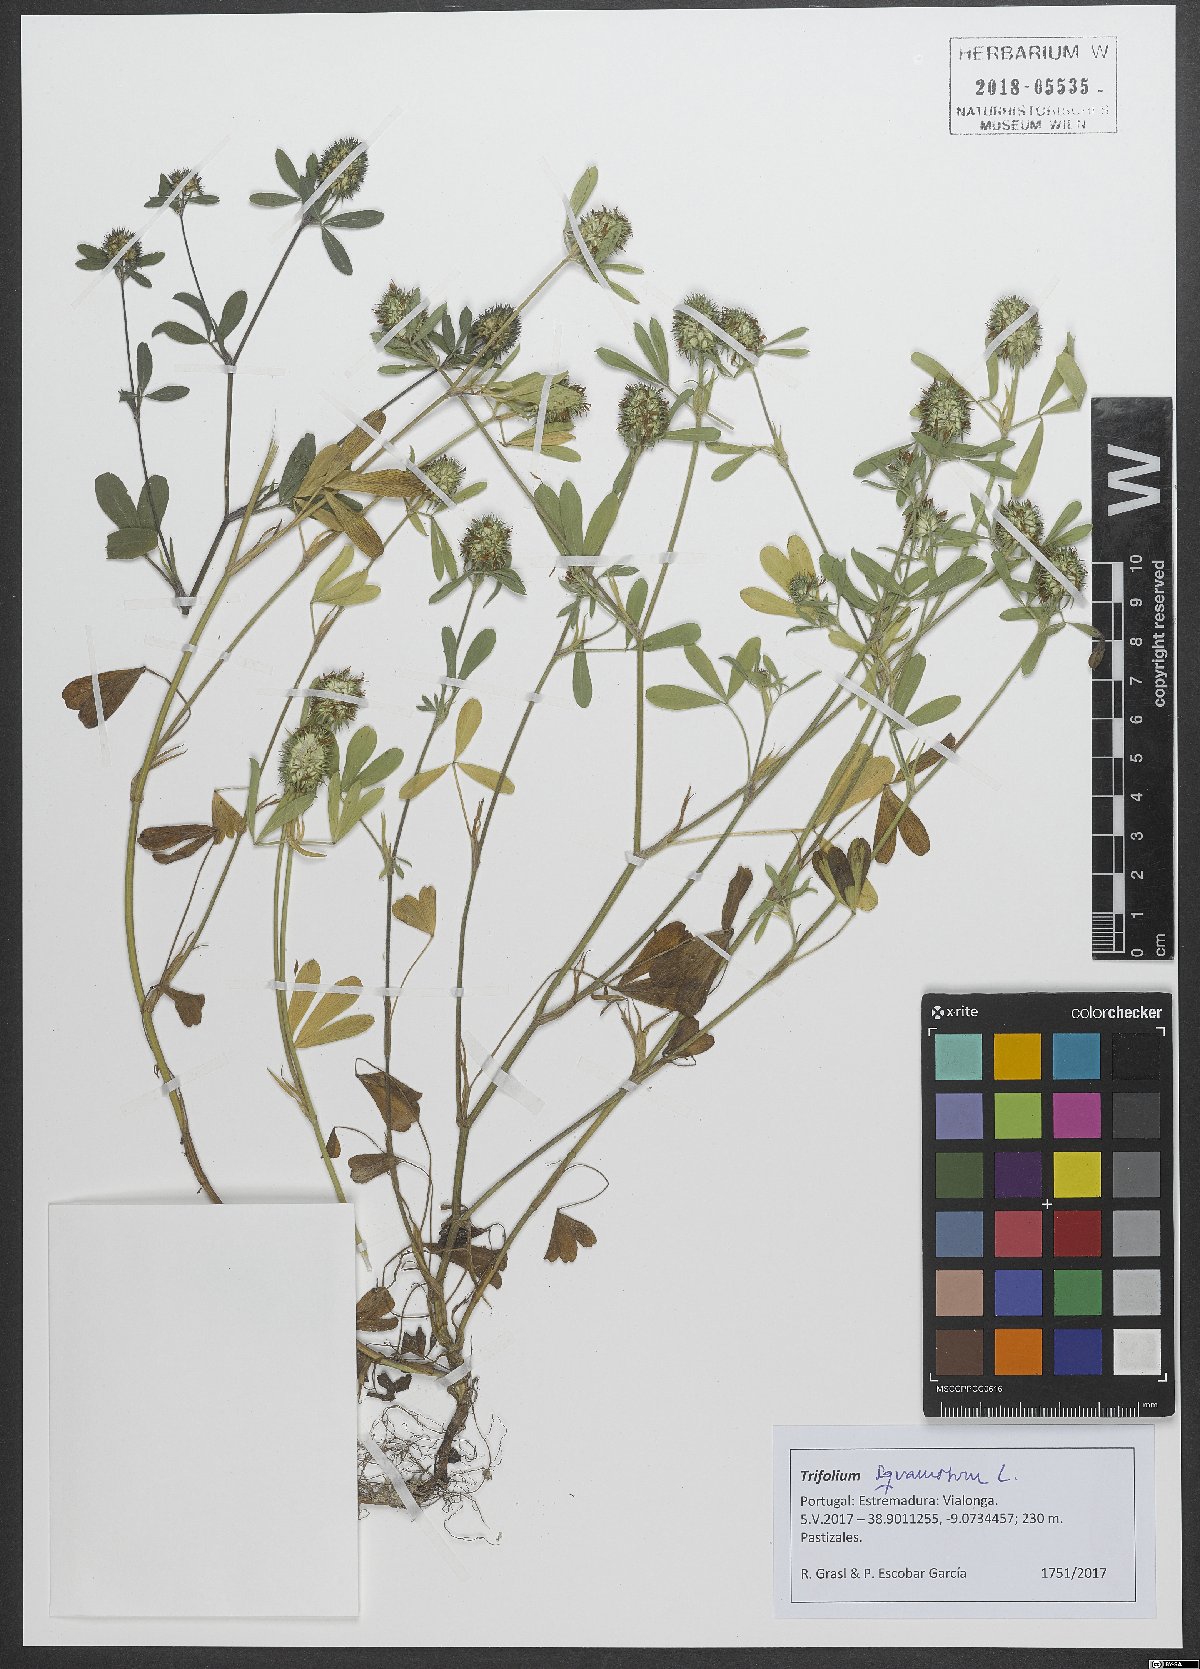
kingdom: Plantae
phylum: Tracheophyta
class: Magnoliopsida
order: Fabales
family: Fabaceae
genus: Trifolium
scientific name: Trifolium squamosum
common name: Sea clover
